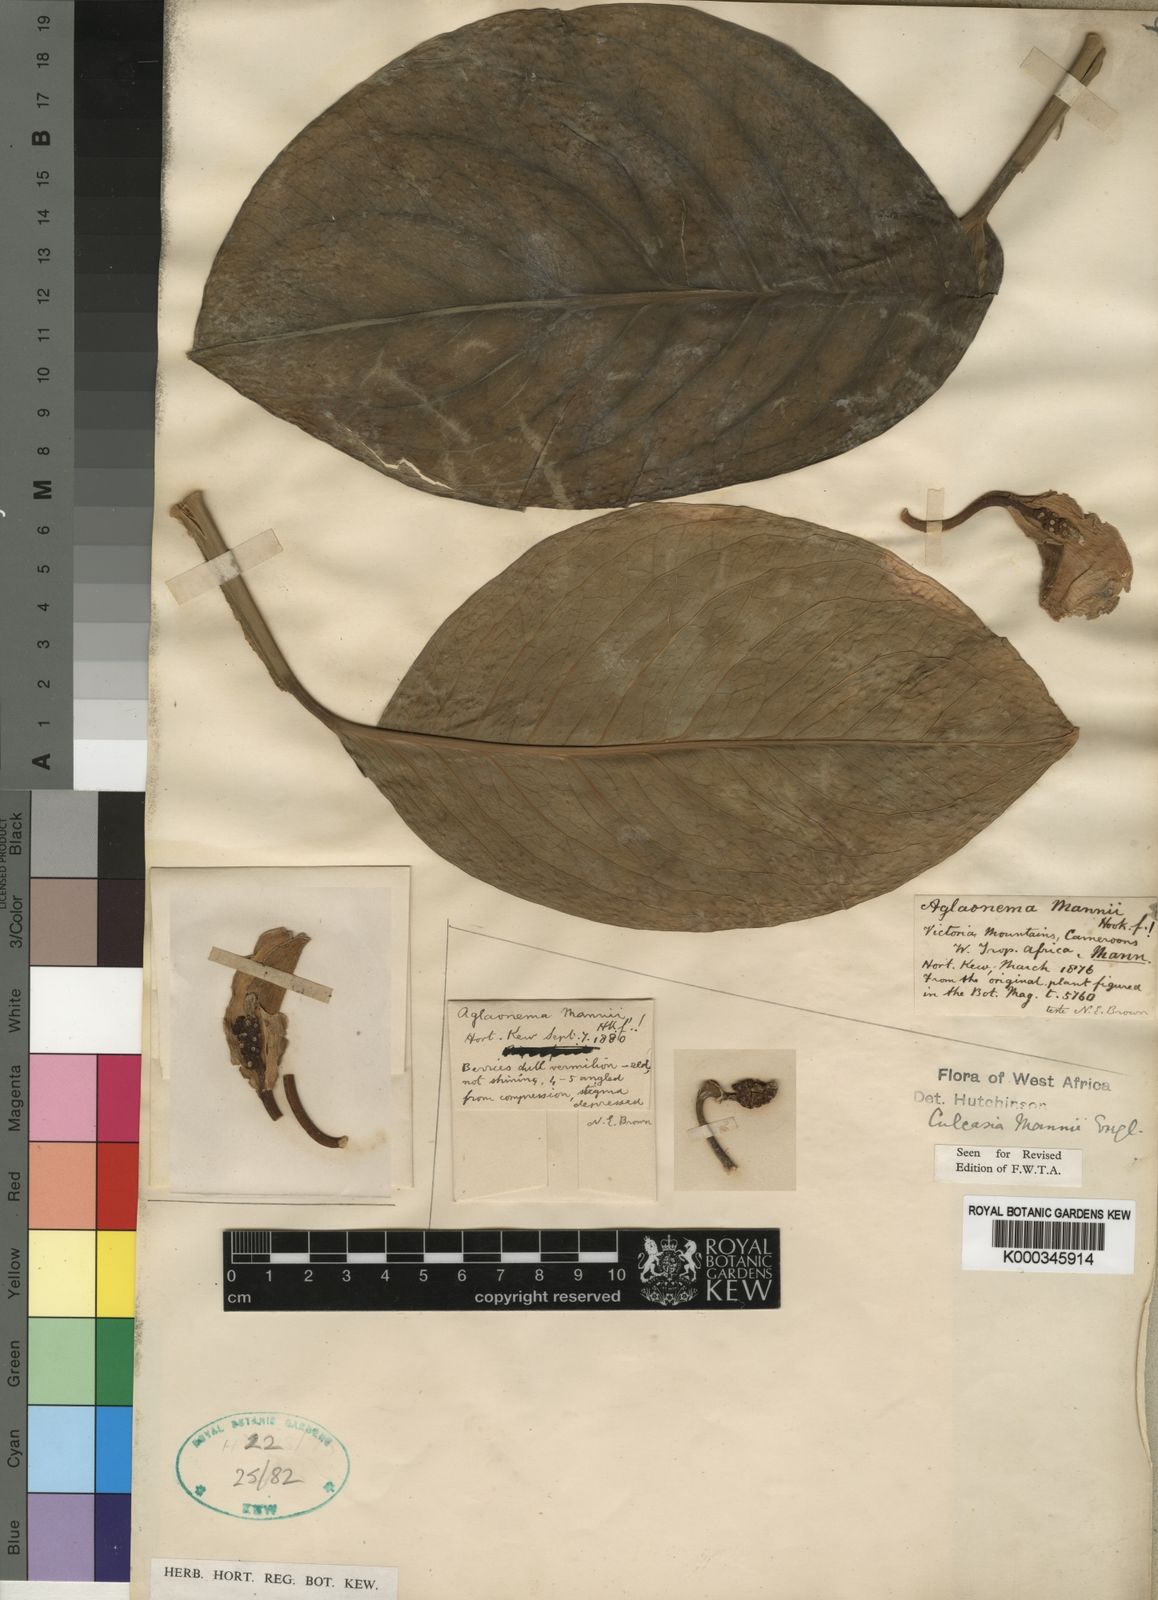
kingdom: Plantae
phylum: Tracheophyta
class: Liliopsida
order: Alismatales
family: Araceae
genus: Culcasia
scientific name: Culcasia mannii
